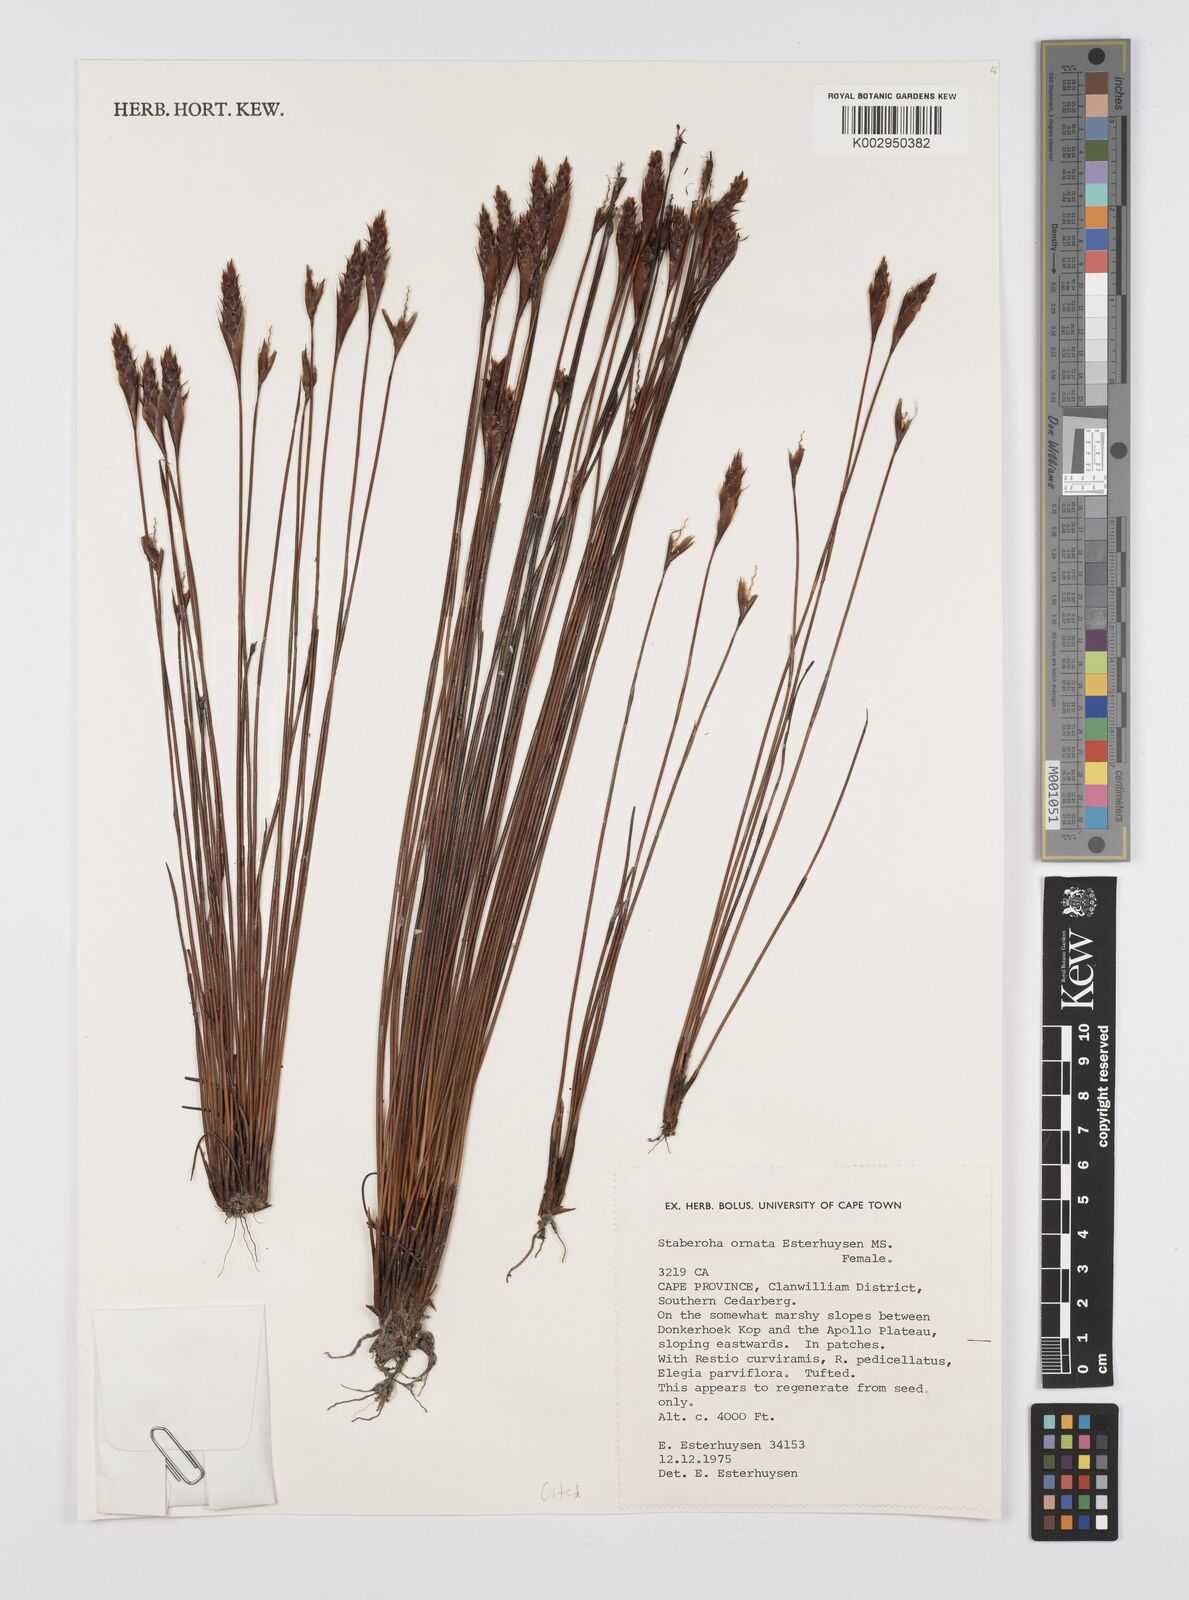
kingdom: Plantae
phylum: Tracheophyta
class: Liliopsida
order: Poales
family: Restionaceae
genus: Staberoha
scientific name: Staberoha ornata
